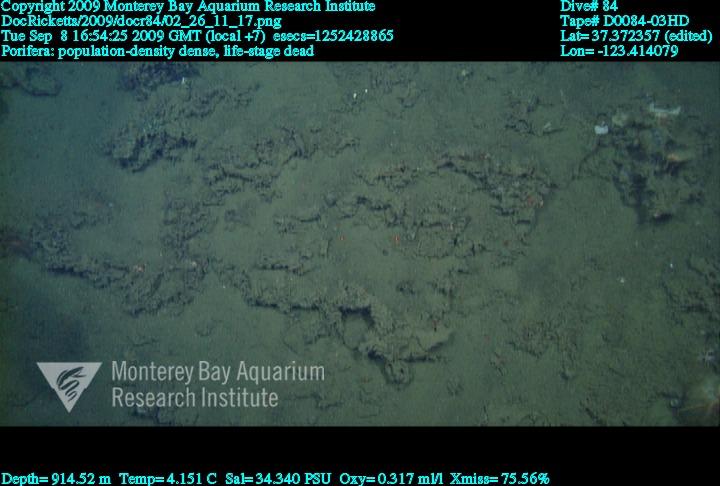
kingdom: Animalia
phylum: Porifera
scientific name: Porifera
